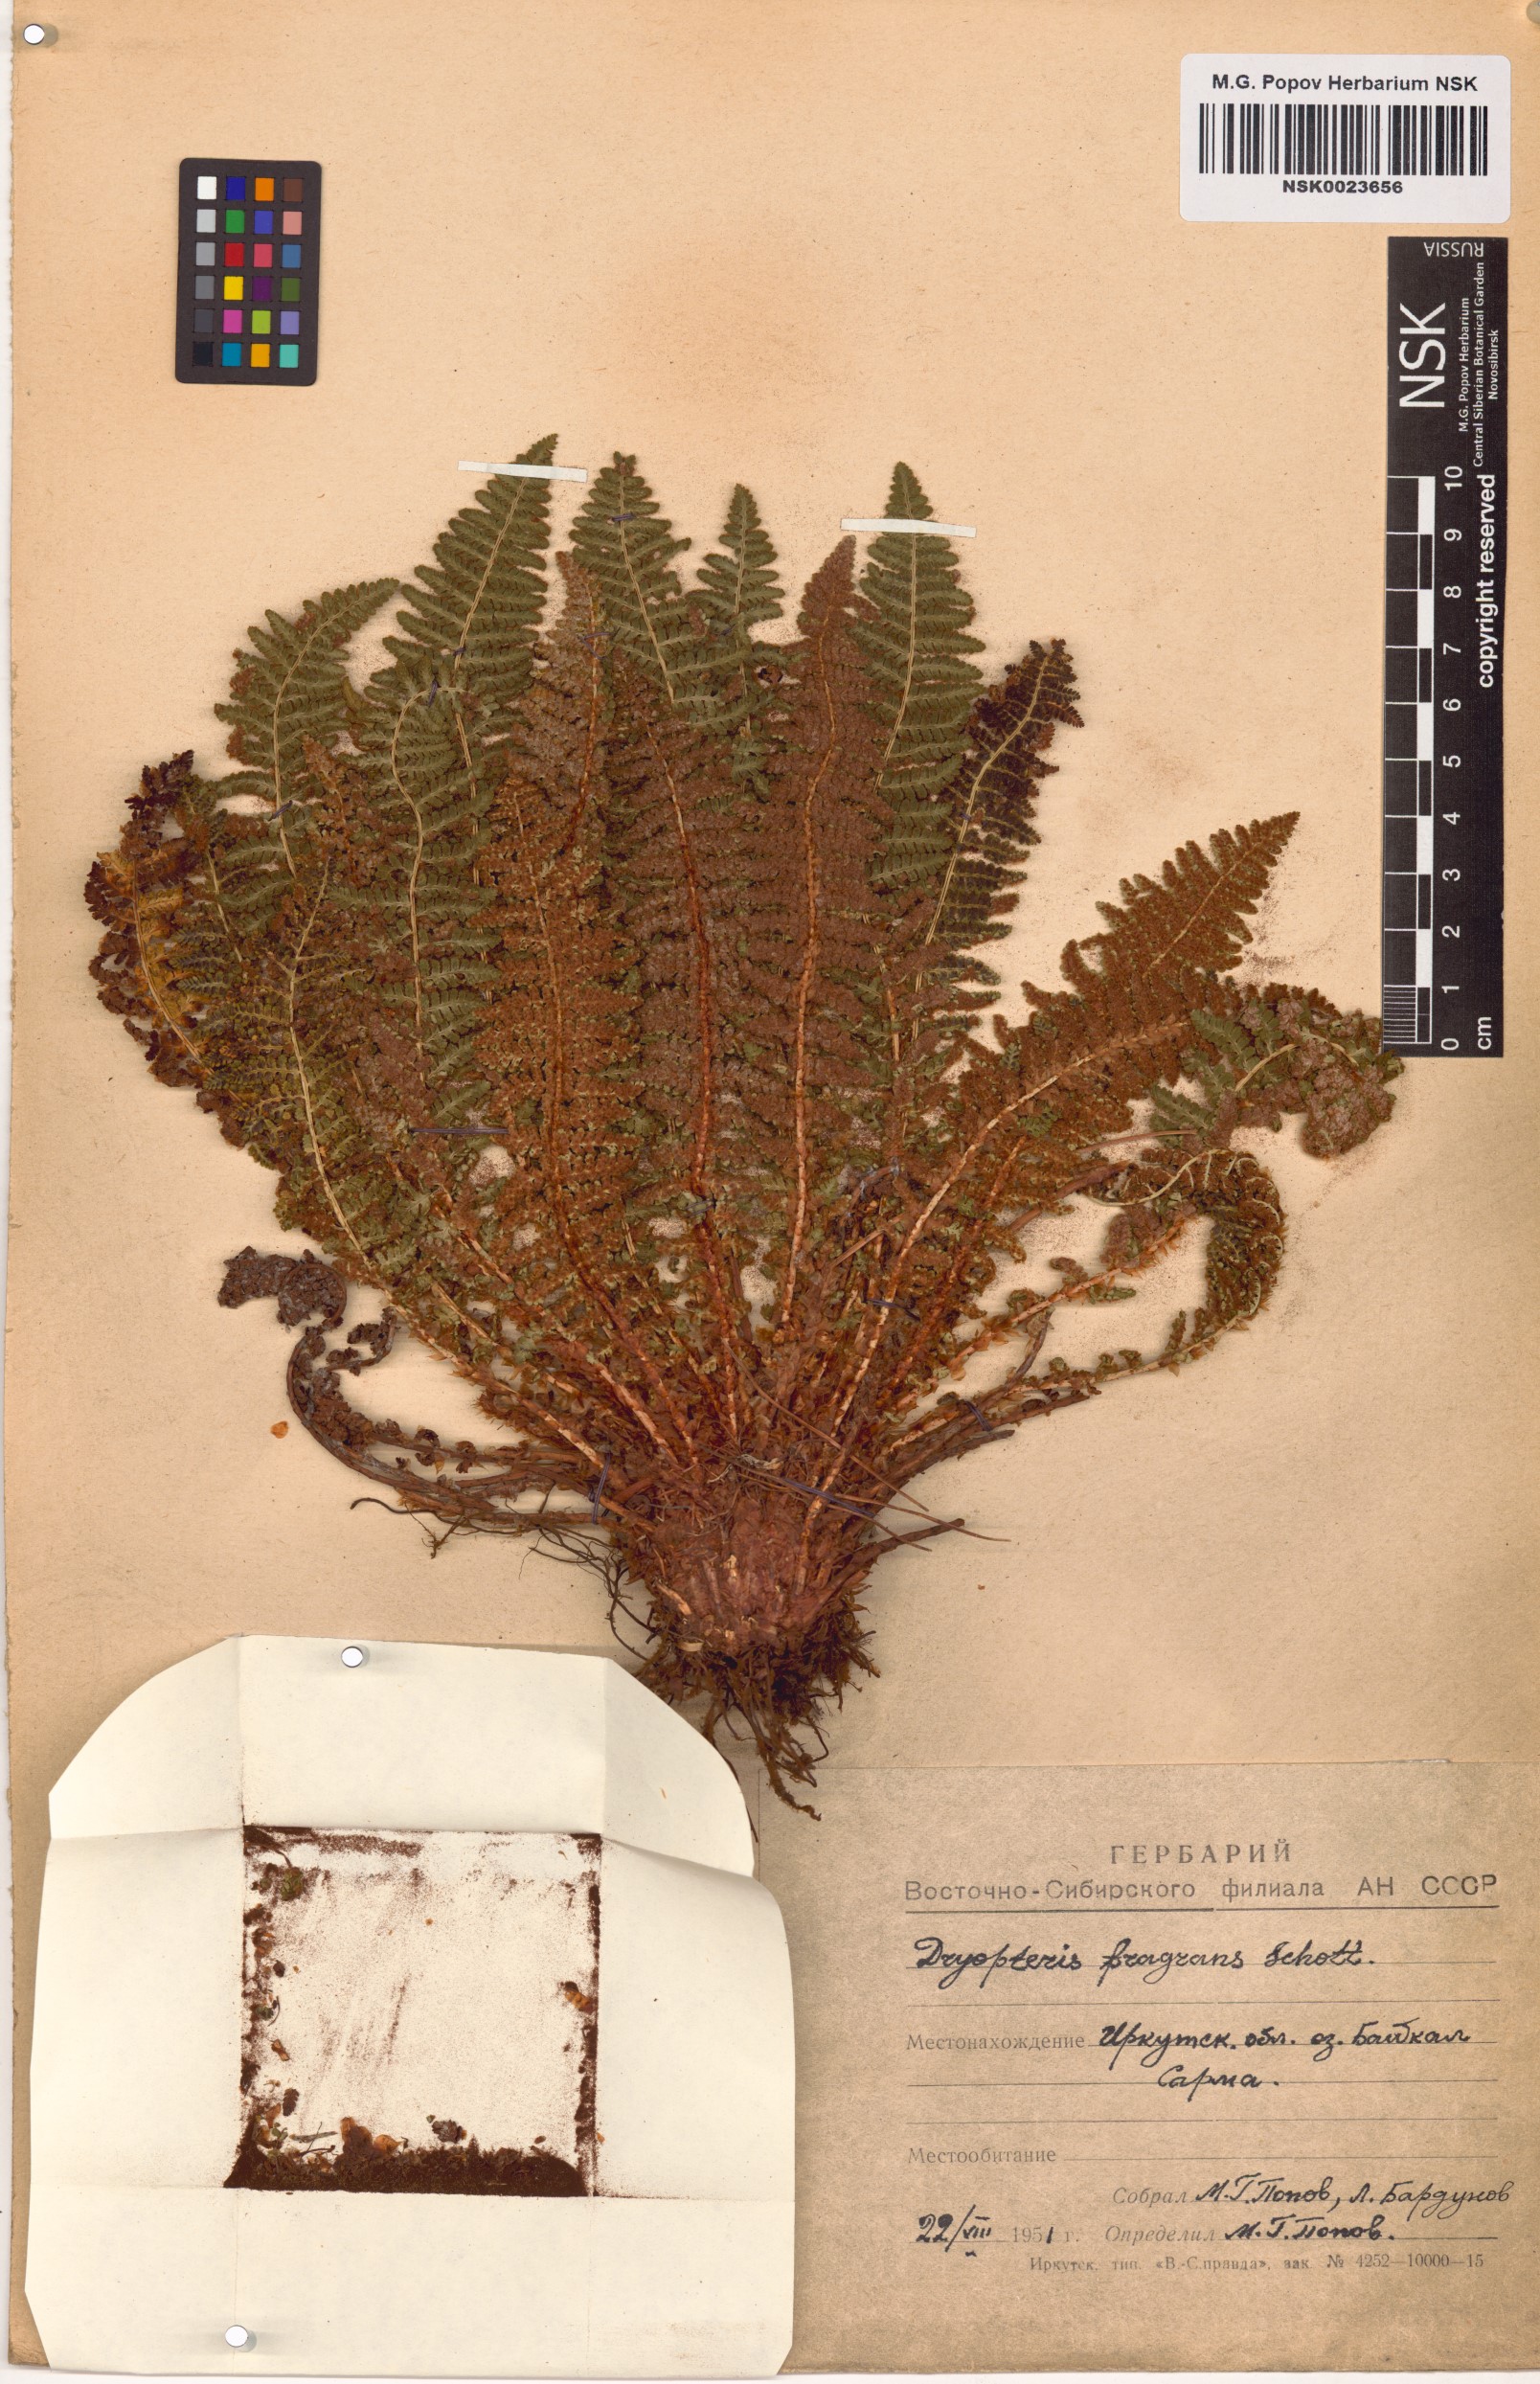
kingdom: Plantae
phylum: Tracheophyta
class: Polypodiopsida
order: Polypodiales
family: Dryopteridaceae
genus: Dryopteris
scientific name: Dryopteris fragrans
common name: Fragrant wood fern
